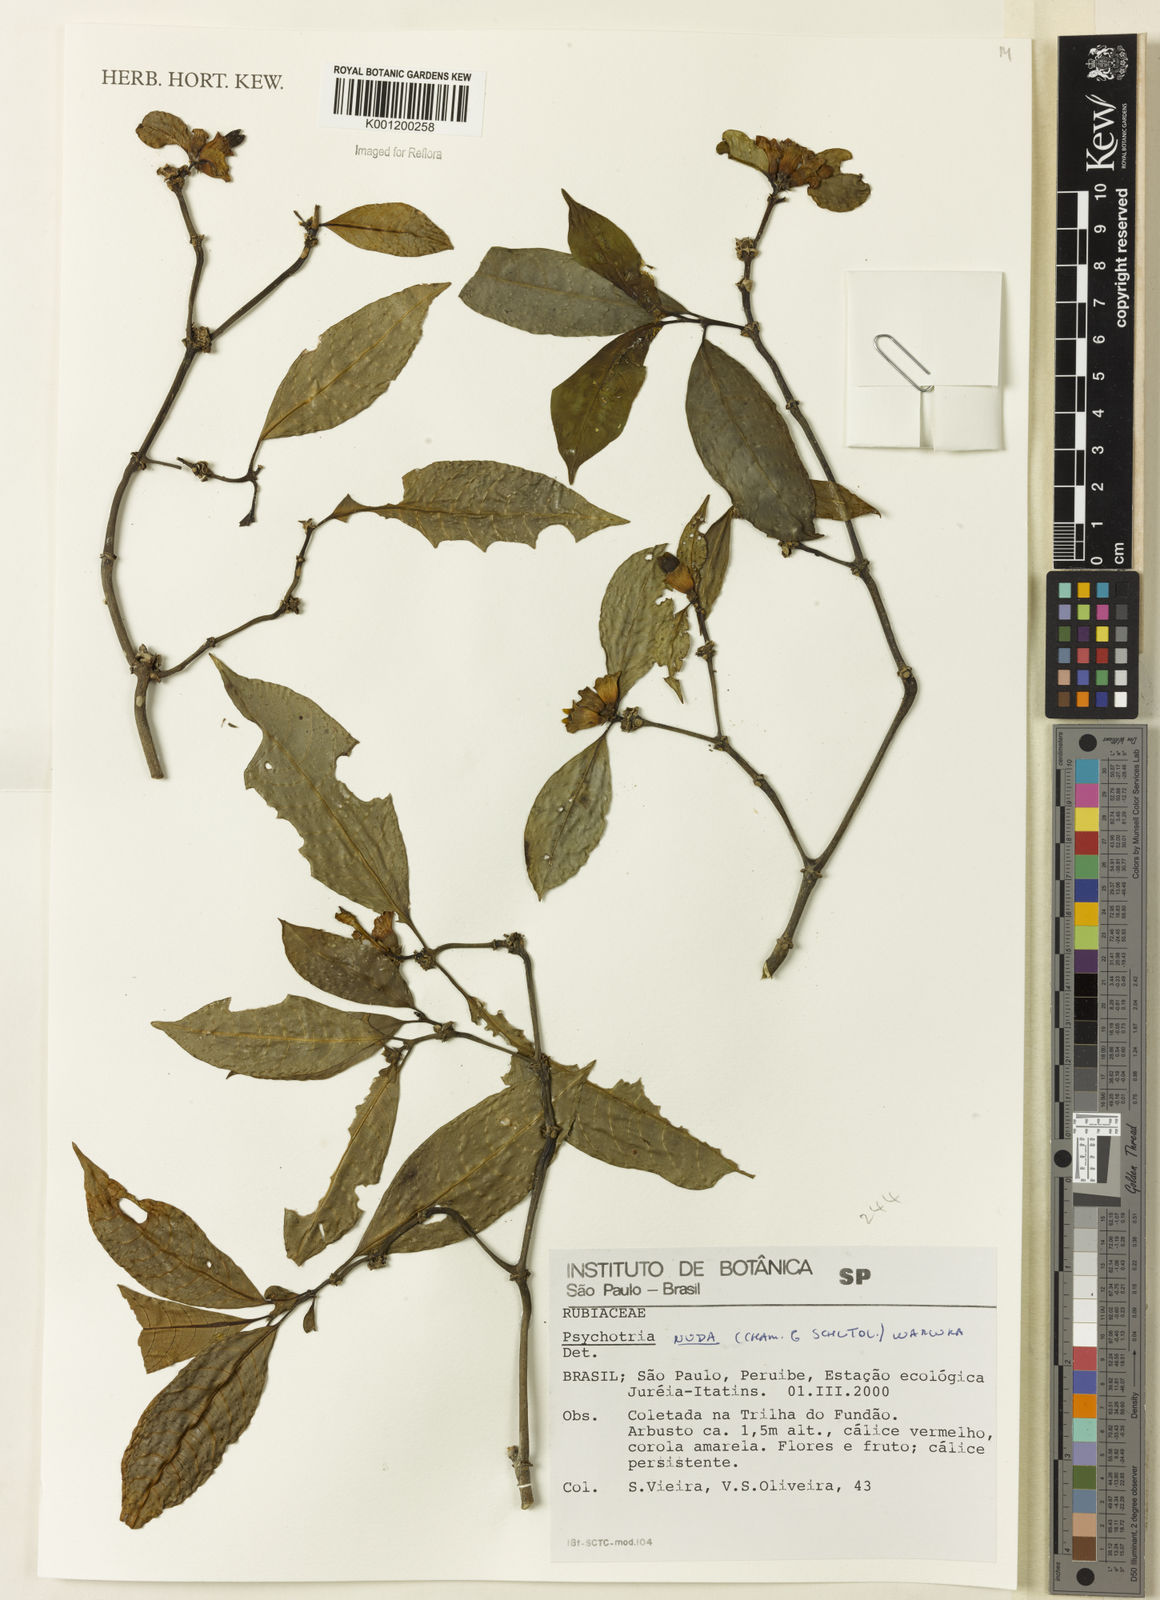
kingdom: Plantae
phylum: Tracheophyta
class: Magnoliopsida
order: Gentianales
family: Rubiaceae
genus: Psychotria
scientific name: Psychotria nuda
